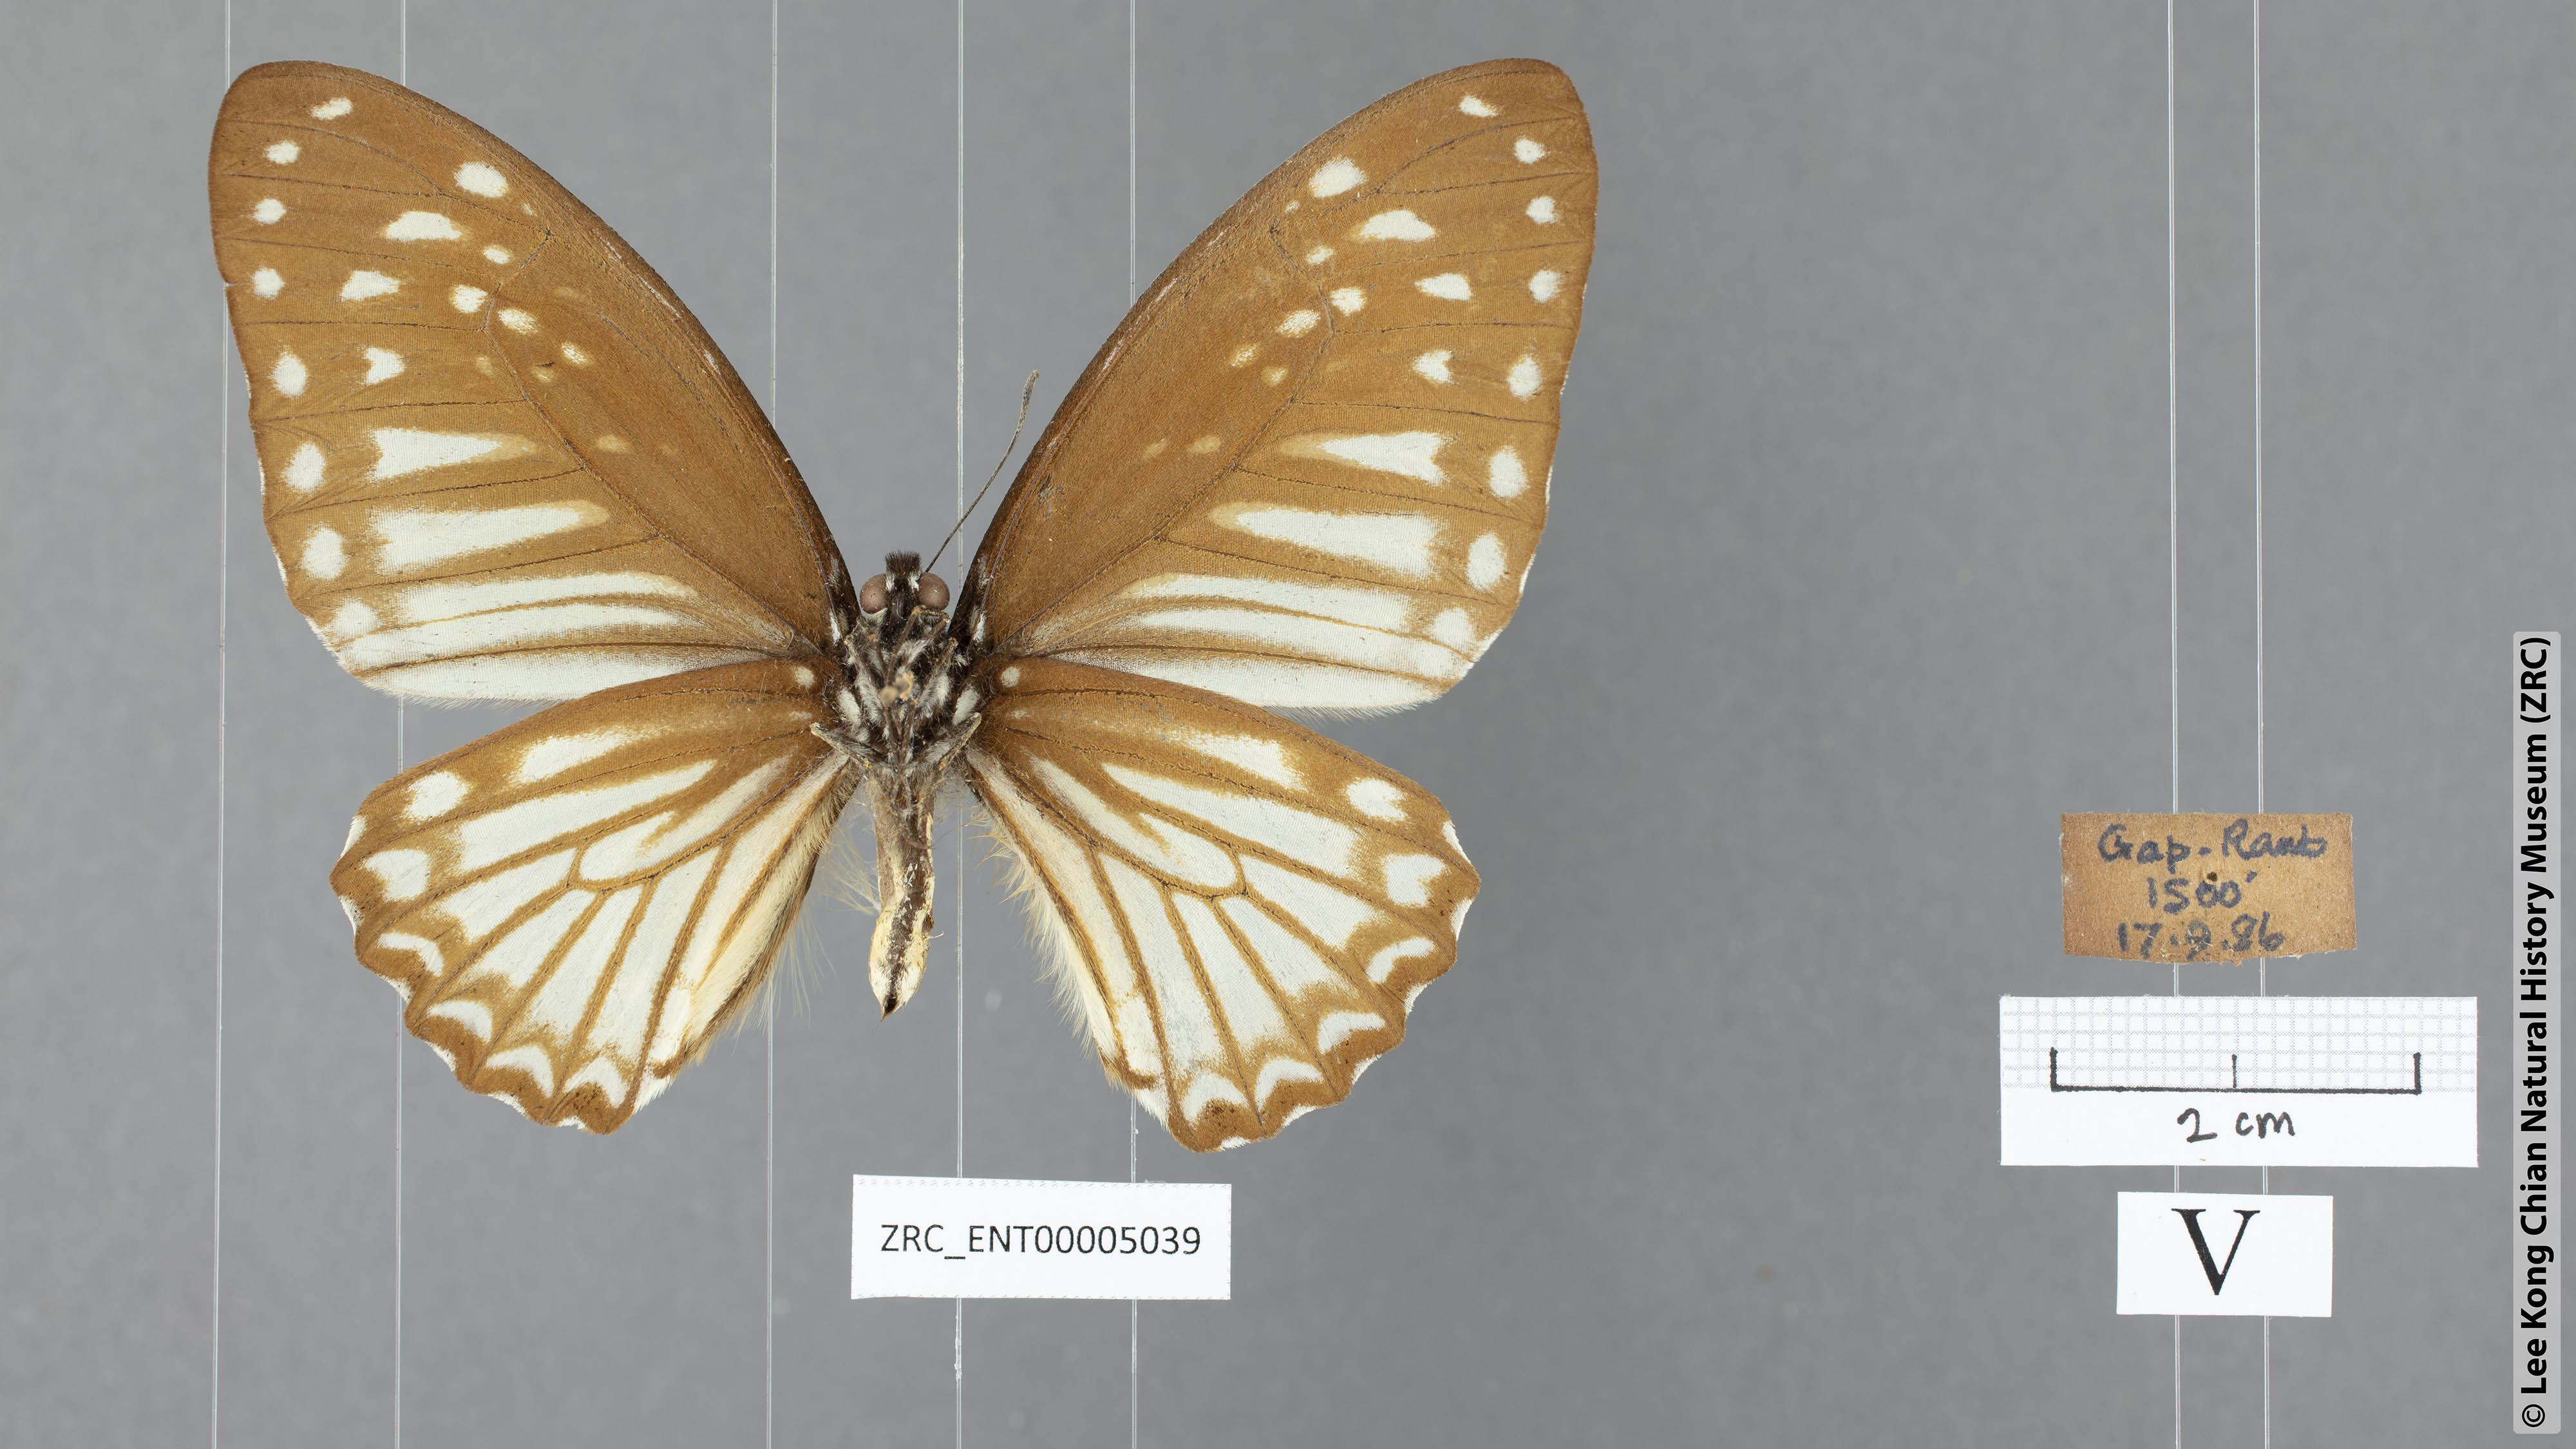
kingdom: Animalia
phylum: Arthropoda
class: Insecta
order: Lepidoptera
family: Papilionidae
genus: Graphium
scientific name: Graphium ramaceus
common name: Pendlebury's zebra
